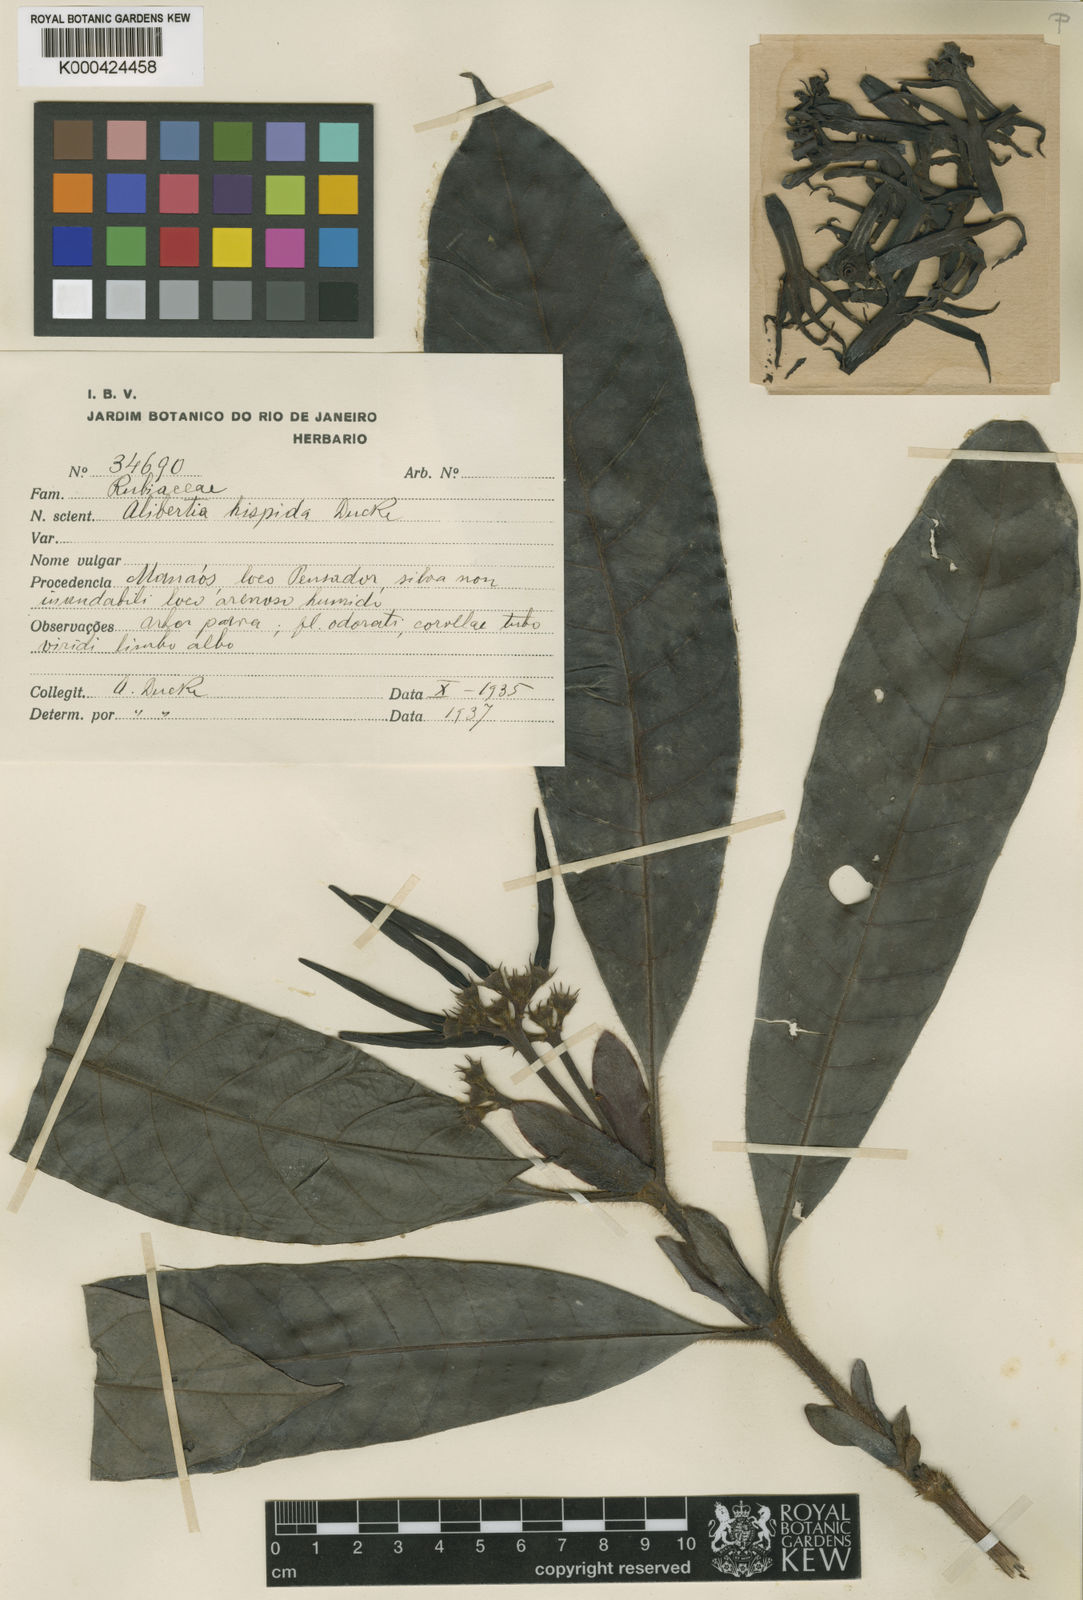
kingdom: Plantae
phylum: Tracheophyta
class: Magnoliopsida
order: Gentianales
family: Rubiaceae
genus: Kutchubaea
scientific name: Kutchubaea oocarpa
